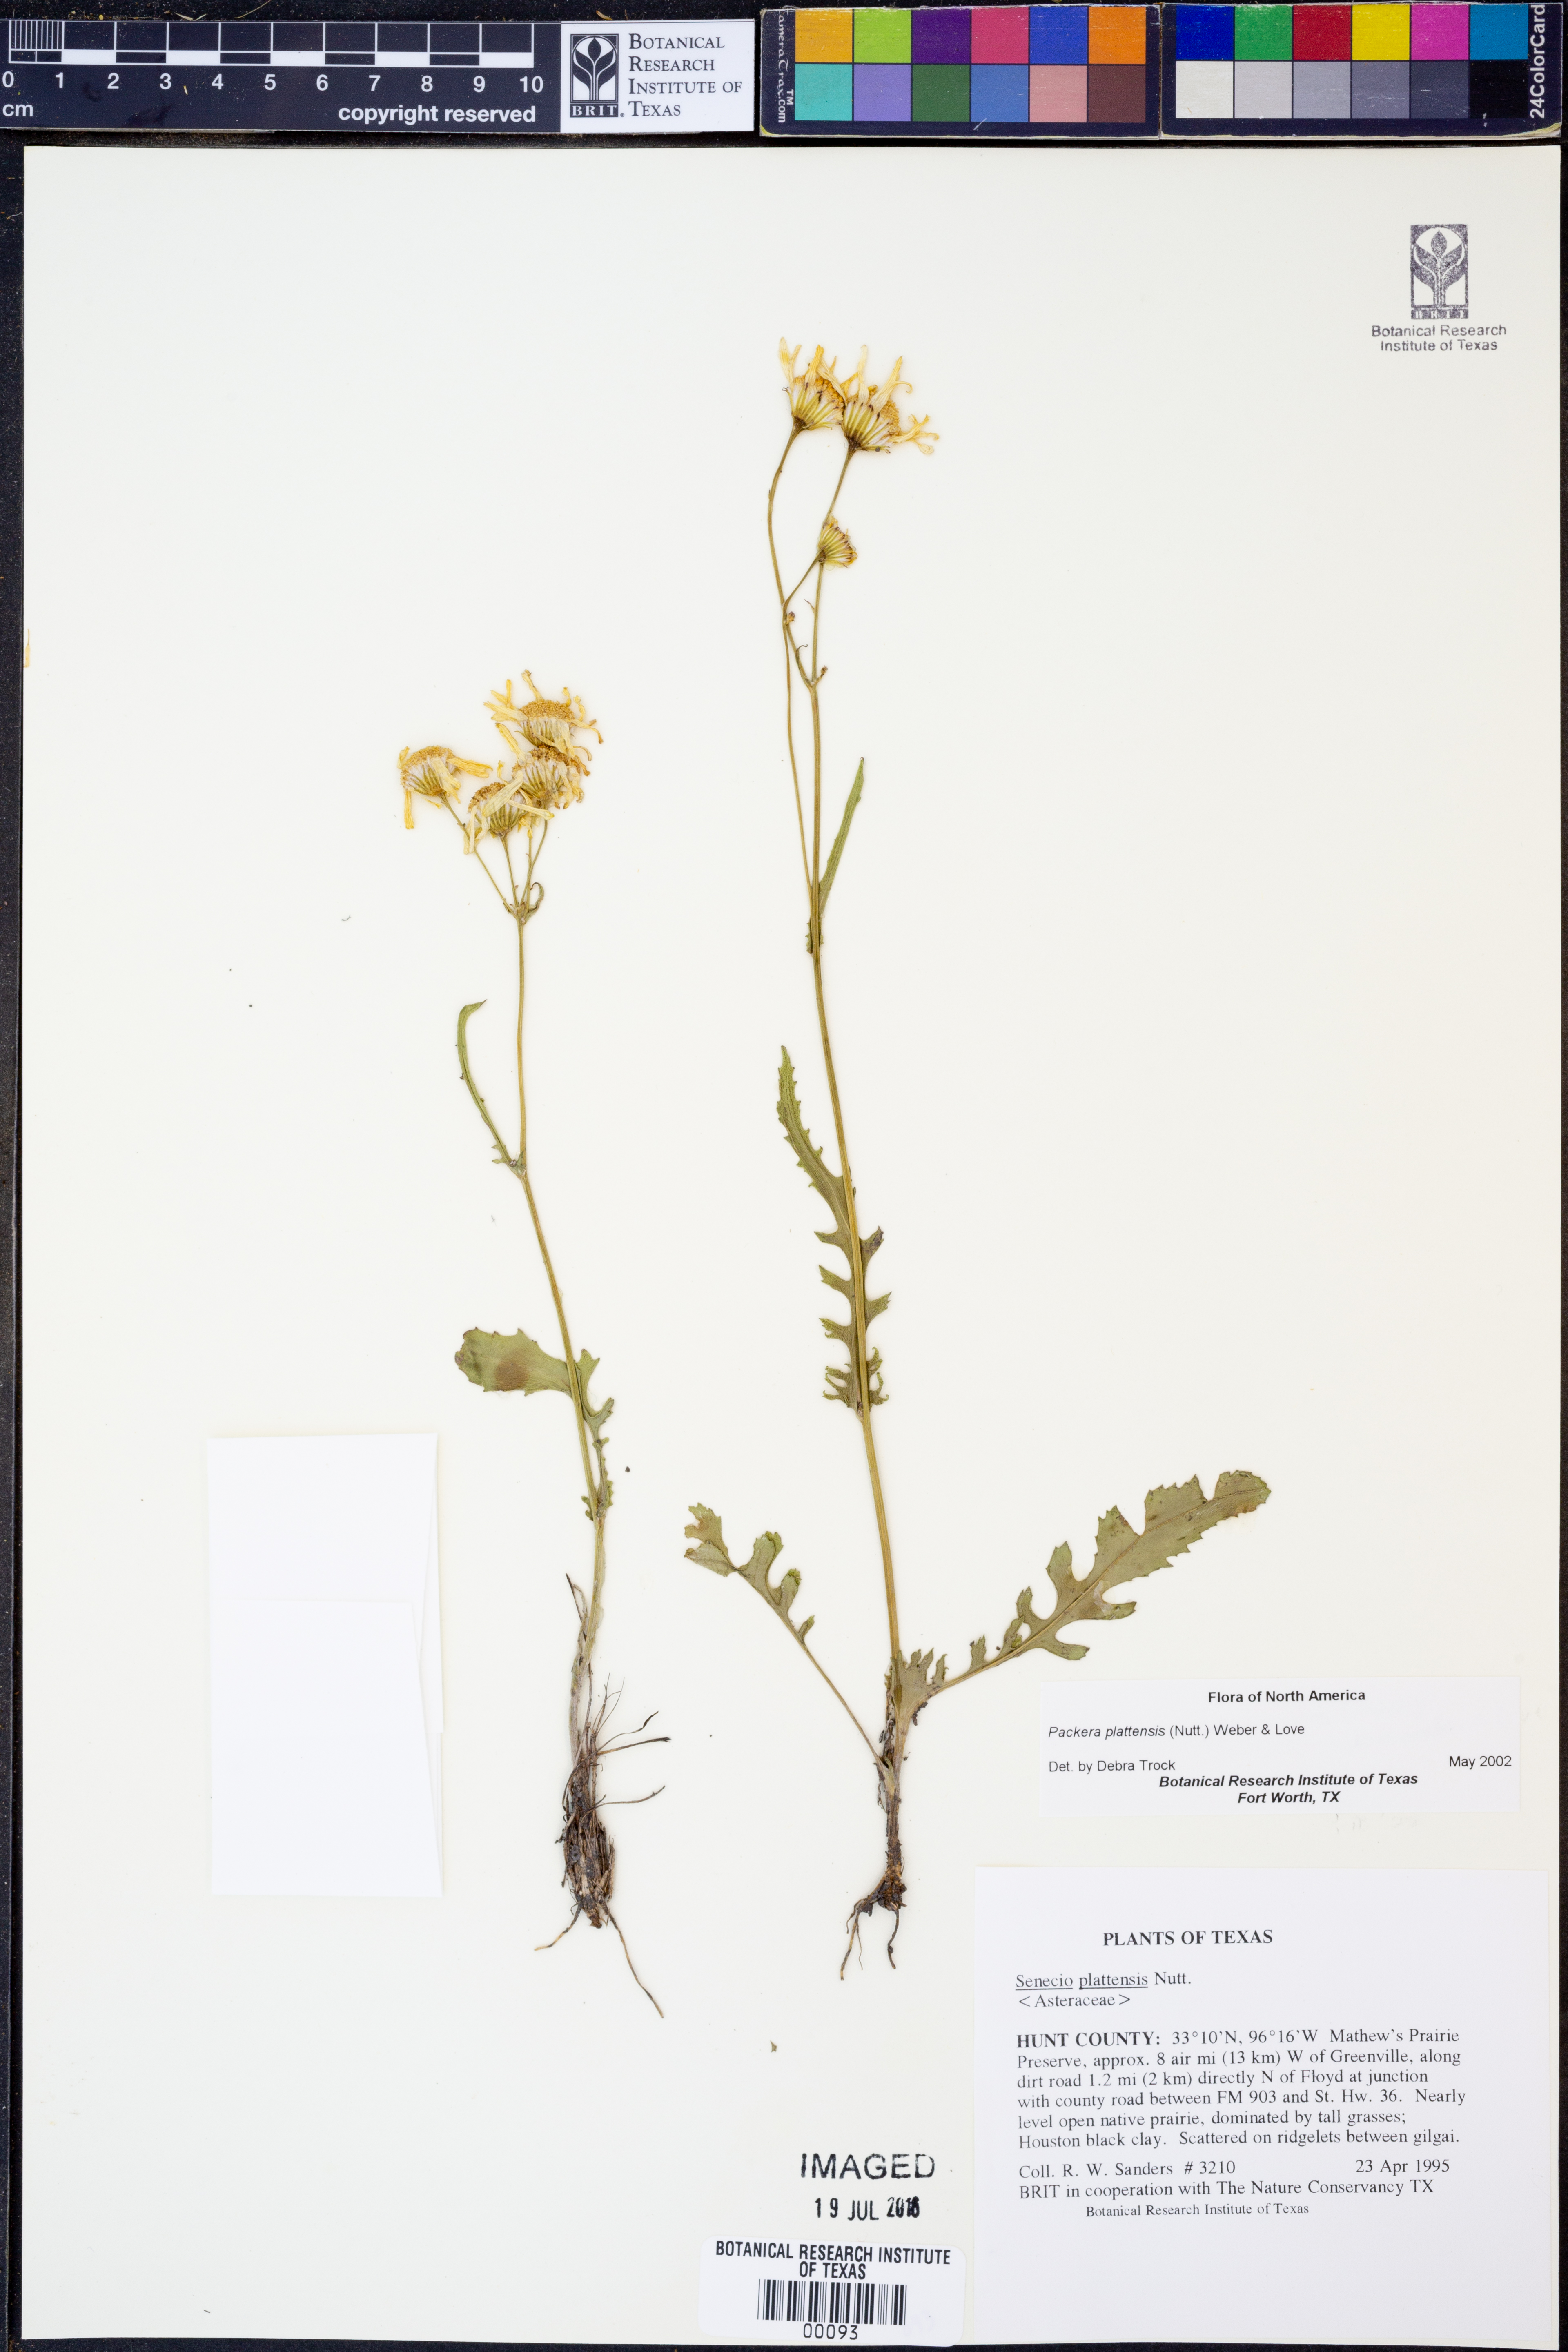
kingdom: Plantae
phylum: Tracheophyta
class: Magnoliopsida
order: Asterales
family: Asteraceae
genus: Packera
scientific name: Packera plattensis
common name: Prairie groundsel
